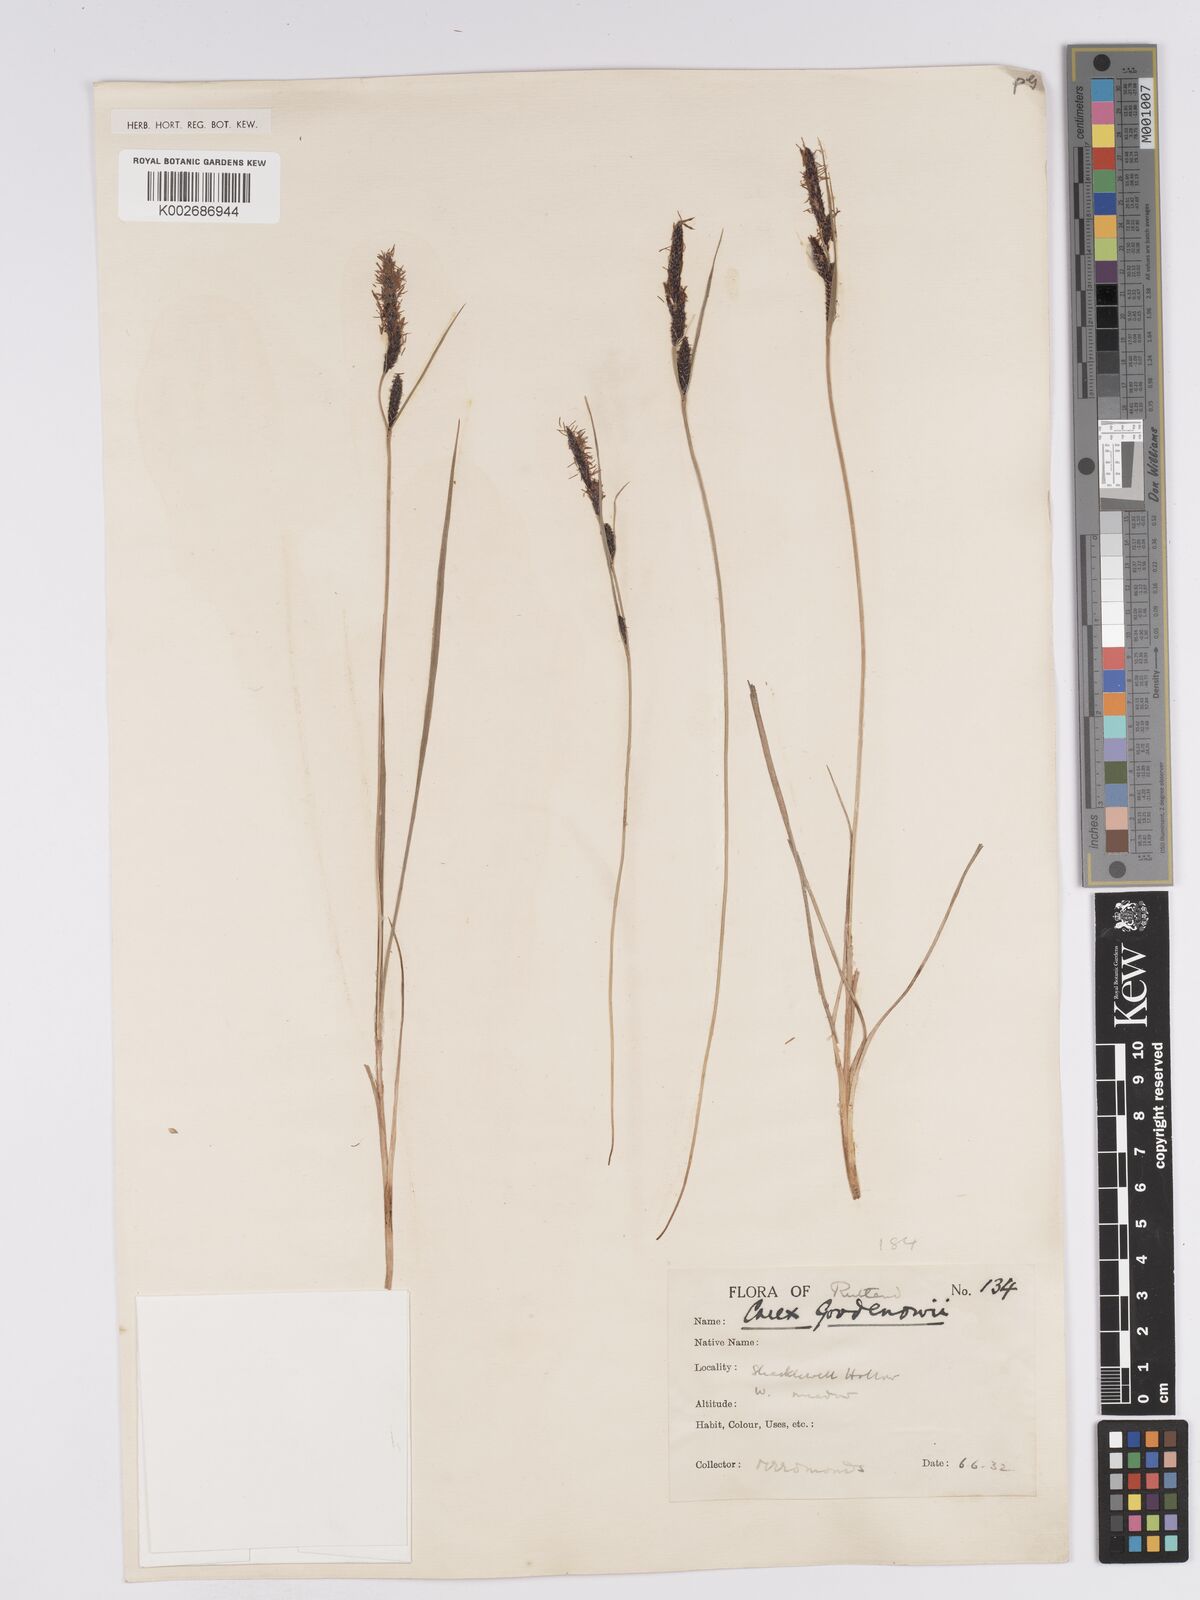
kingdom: Plantae
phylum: Tracheophyta
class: Liliopsida
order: Poales
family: Cyperaceae
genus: Carex
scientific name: Carex nigra
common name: Common sedge
